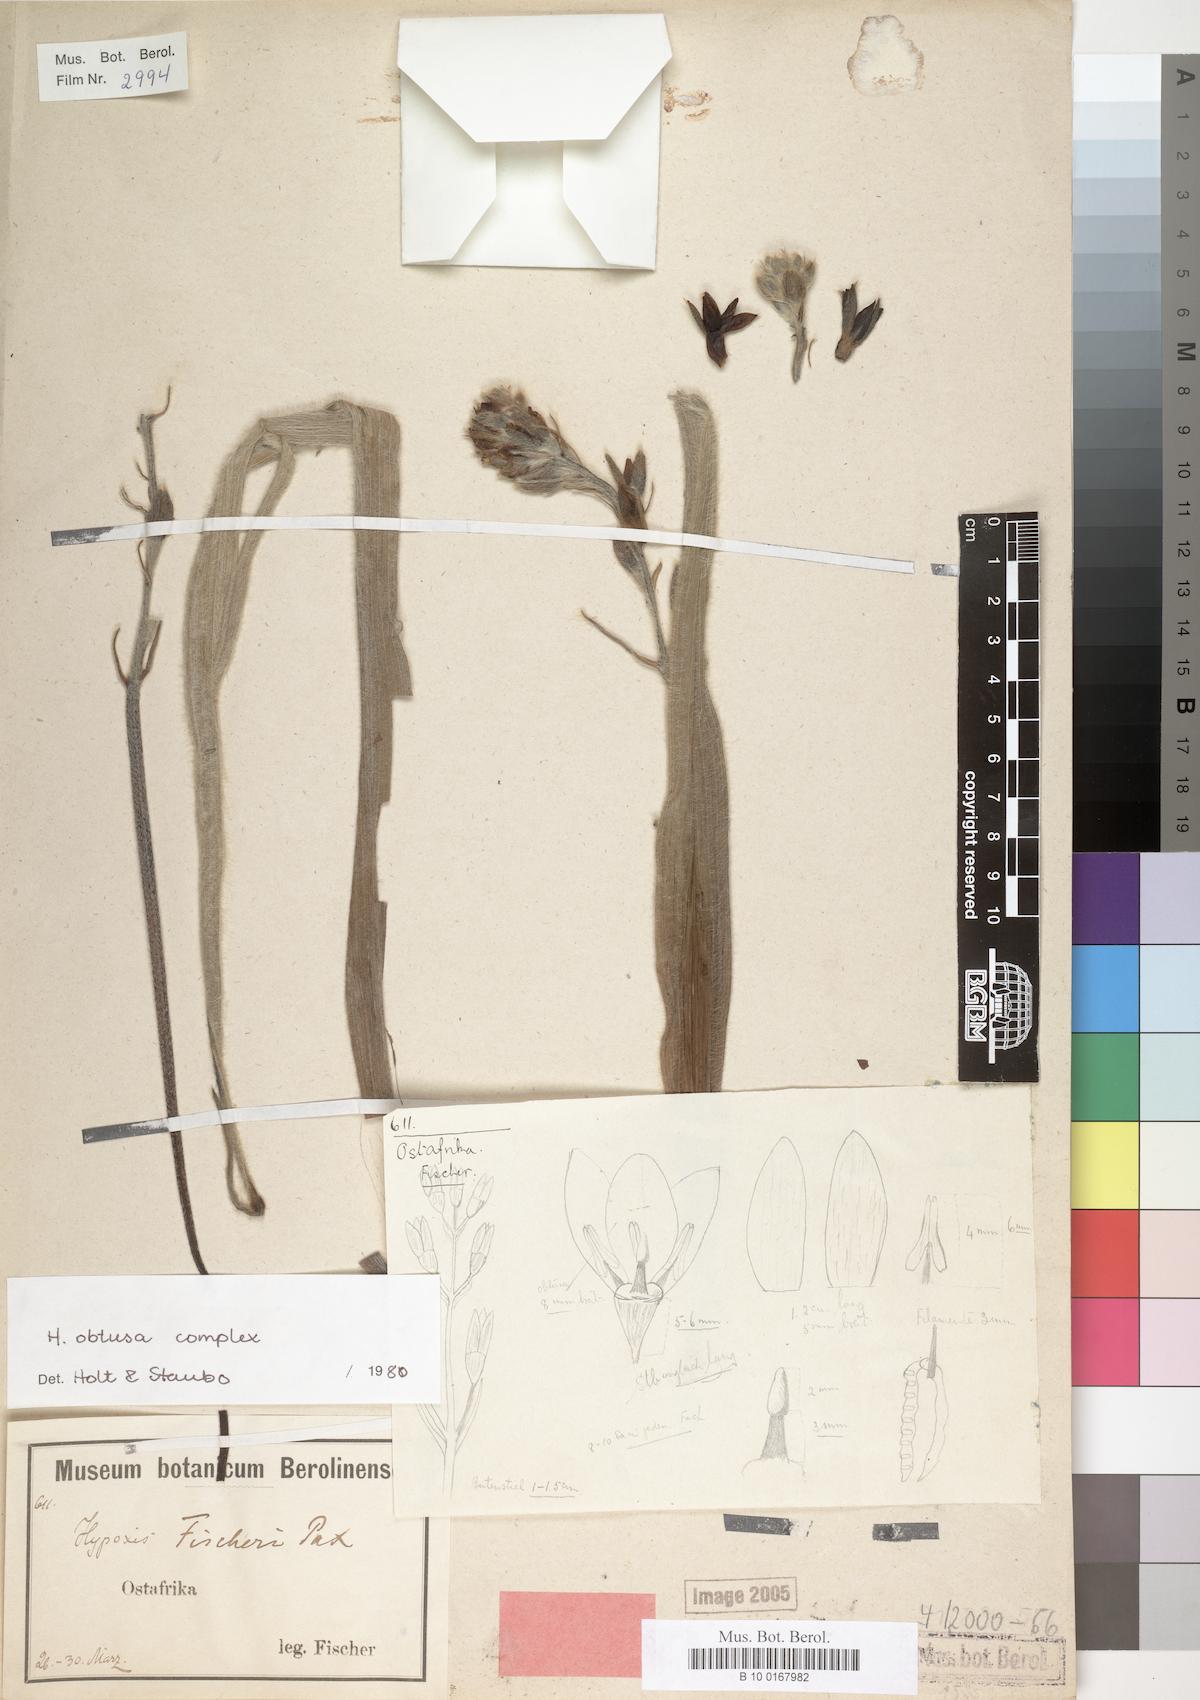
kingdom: Plantae
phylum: Tracheophyta
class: Liliopsida
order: Asparagales
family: Hypoxidaceae
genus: Hypoxis
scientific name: Hypoxis
